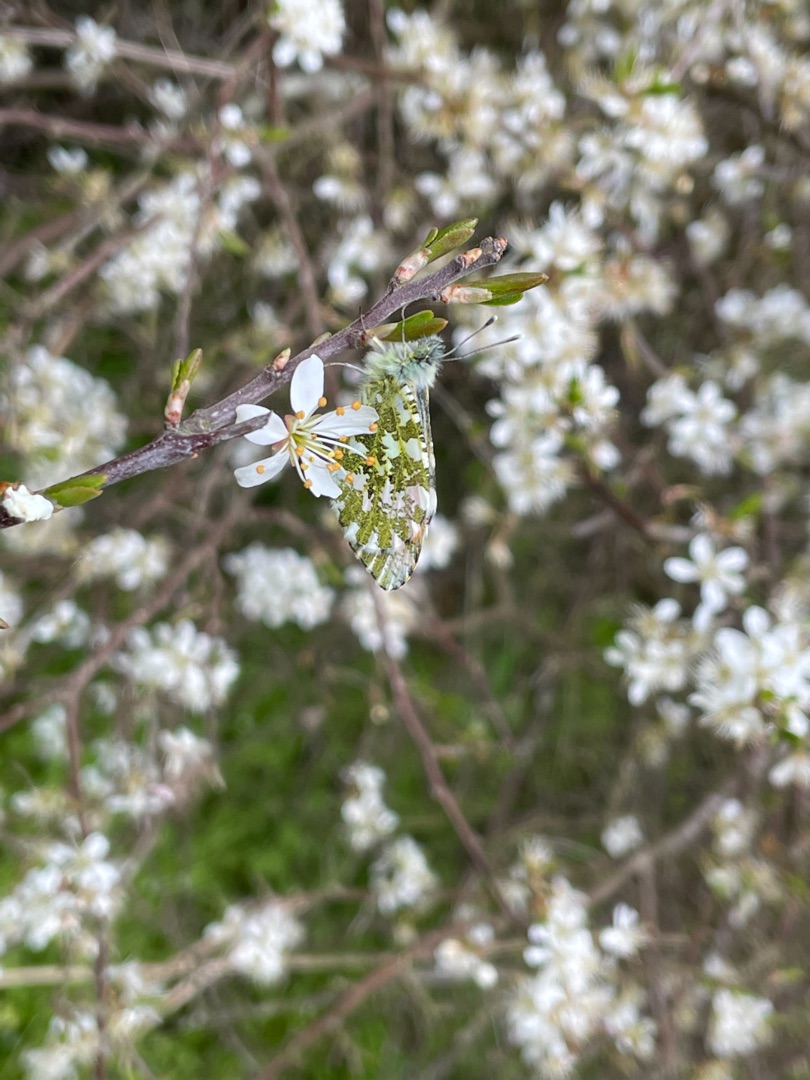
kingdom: Animalia
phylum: Arthropoda
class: Insecta
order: Lepidoptera
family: Pieridae
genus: Anthocharis
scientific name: Anthocharis cardamines
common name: Aurora
